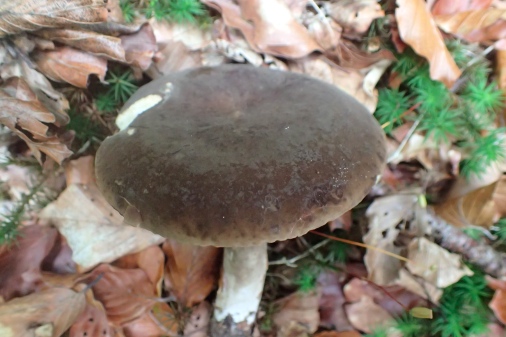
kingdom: Fungi
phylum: Basidiomycota
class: Agaricomycetes
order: Russulales
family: Russulaceae
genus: Lactarius
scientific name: Lactarius romagnesii
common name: fjernbladet mælkehat
